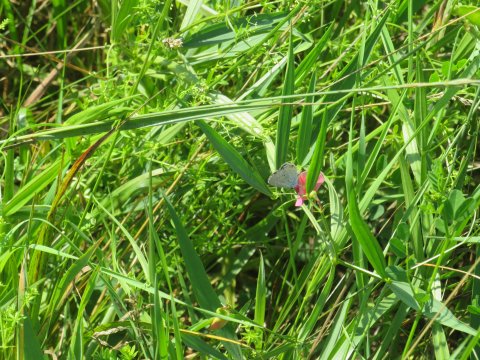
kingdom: Animalia
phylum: Arthropoda
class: Insecta
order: Lepidoptera
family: Lycaenidae
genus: Elkalyce
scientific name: Elkalyce comyntas
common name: Eastern Tailed-Blue
